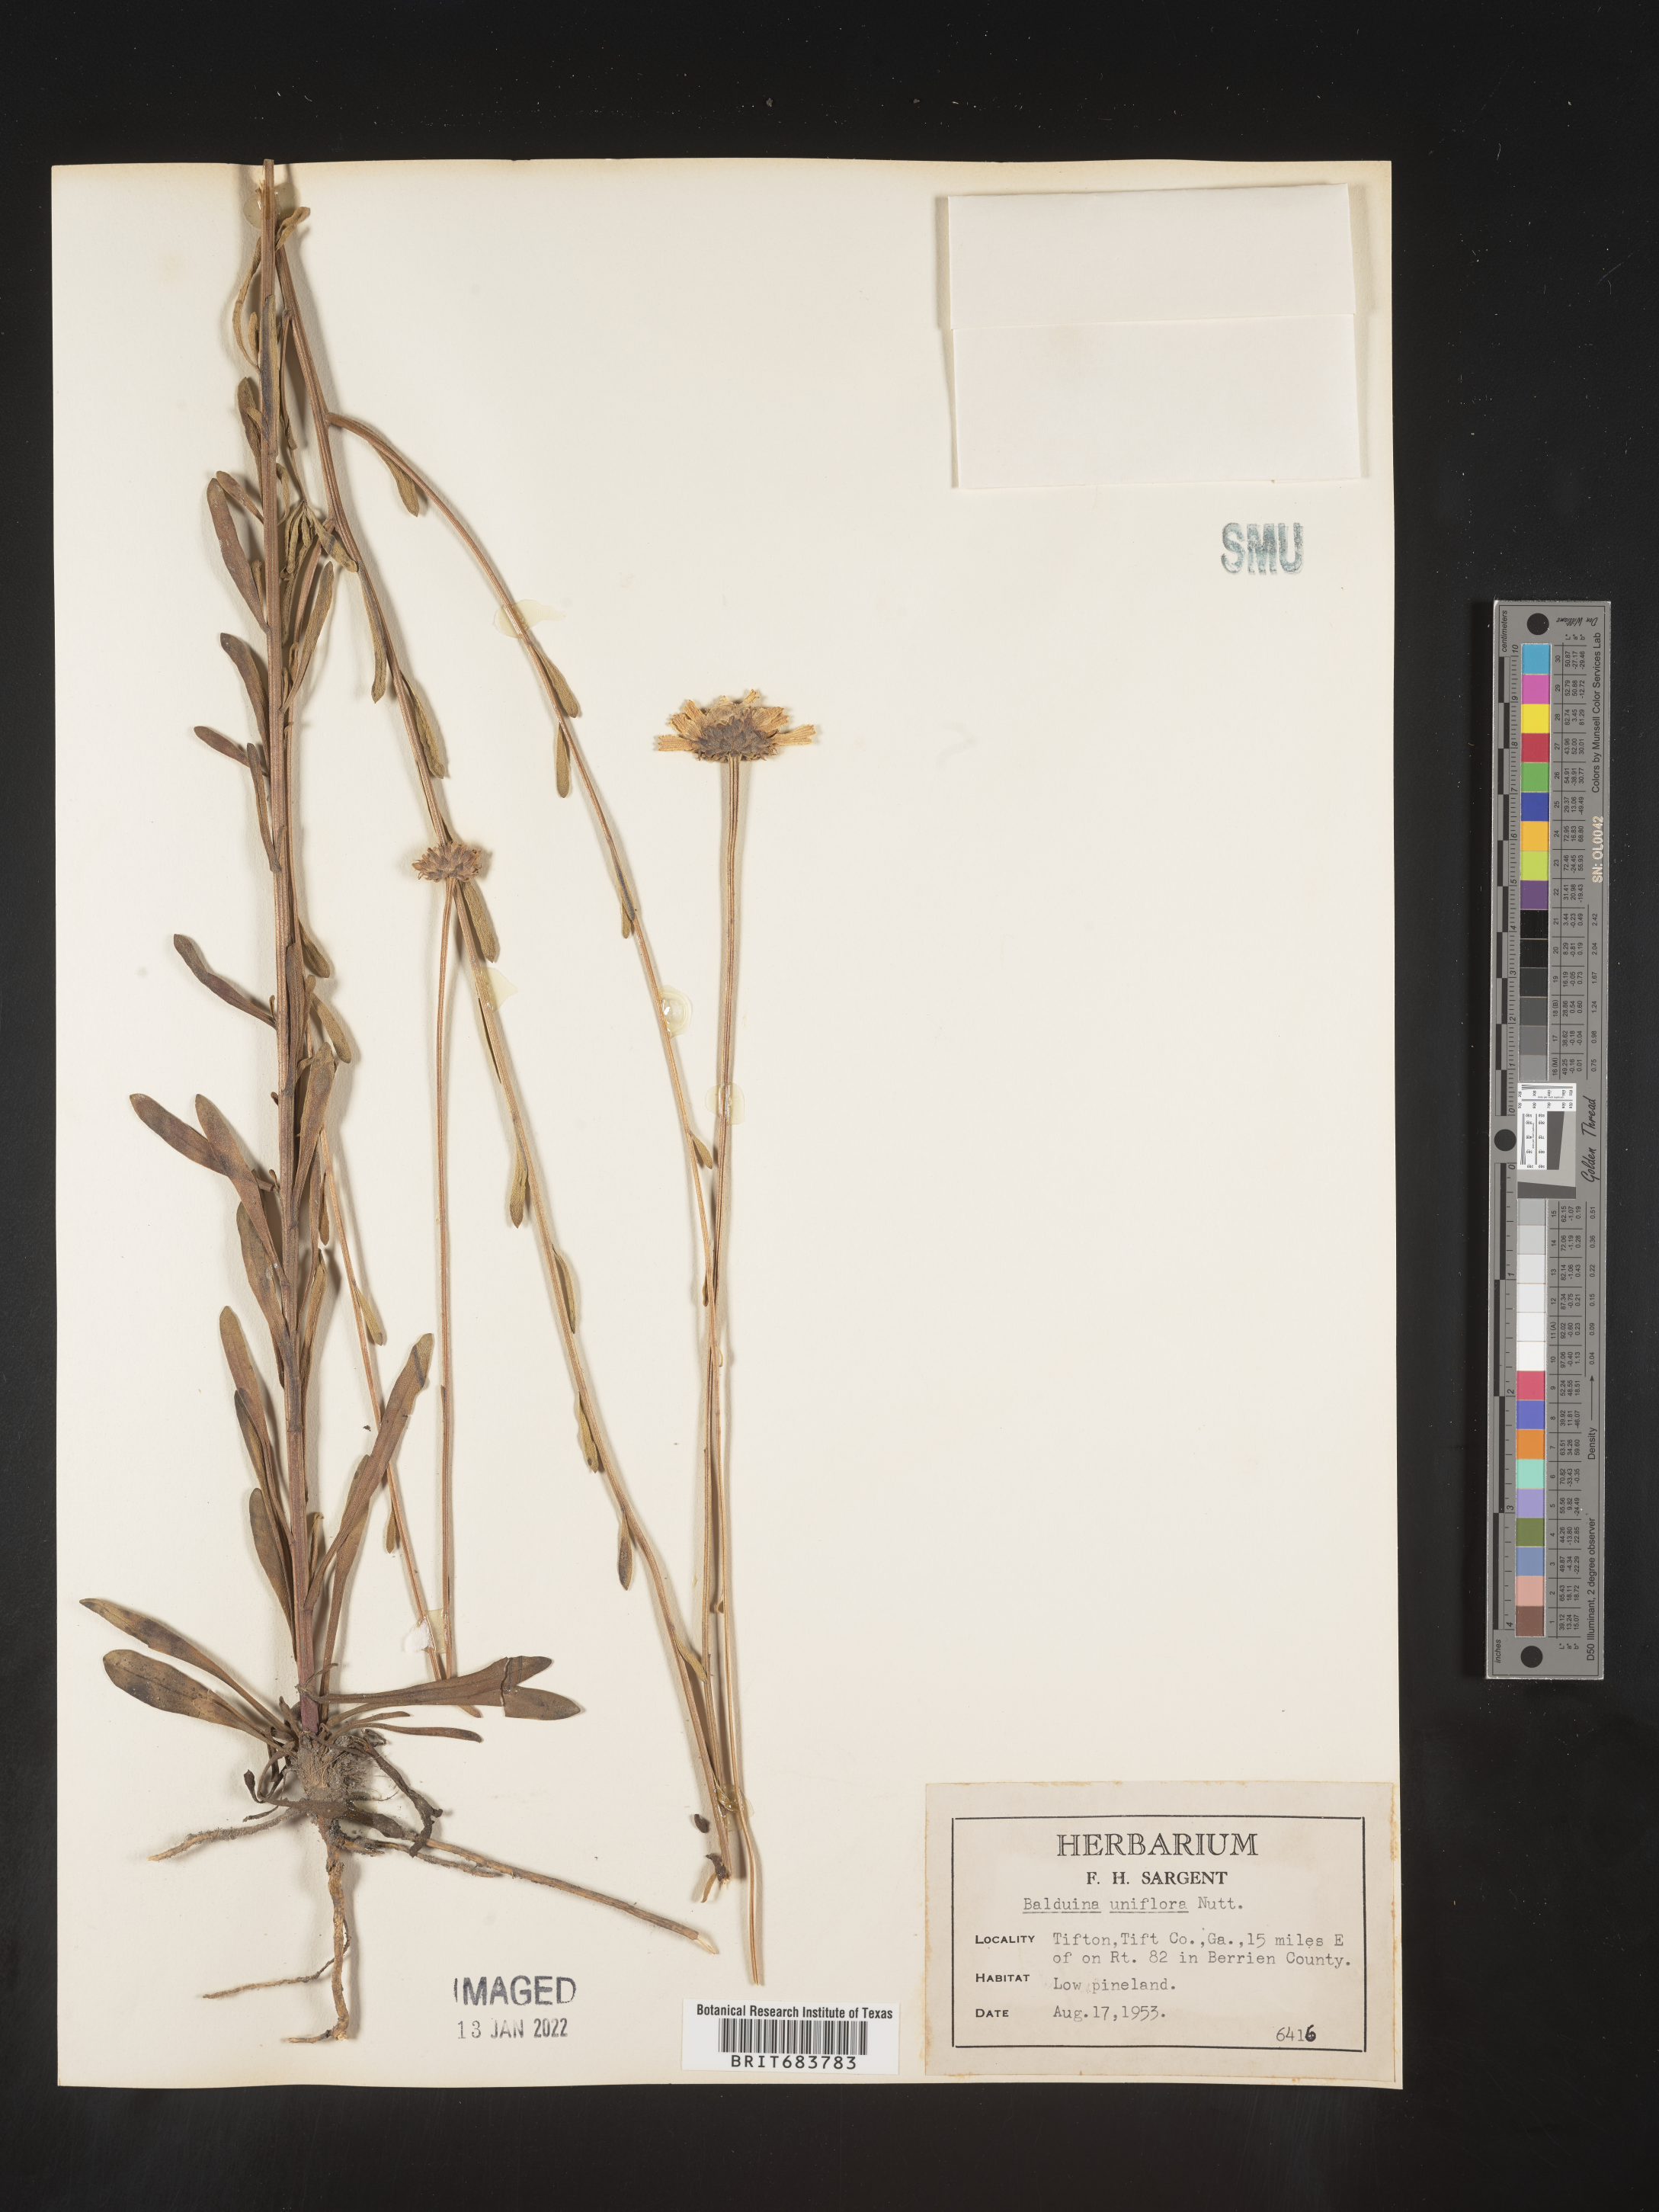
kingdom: Plantae
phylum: Tracheophyta
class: Magnoliopsida
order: Asterales
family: Asteraceae
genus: Balduina
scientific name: Balduina uniflora
